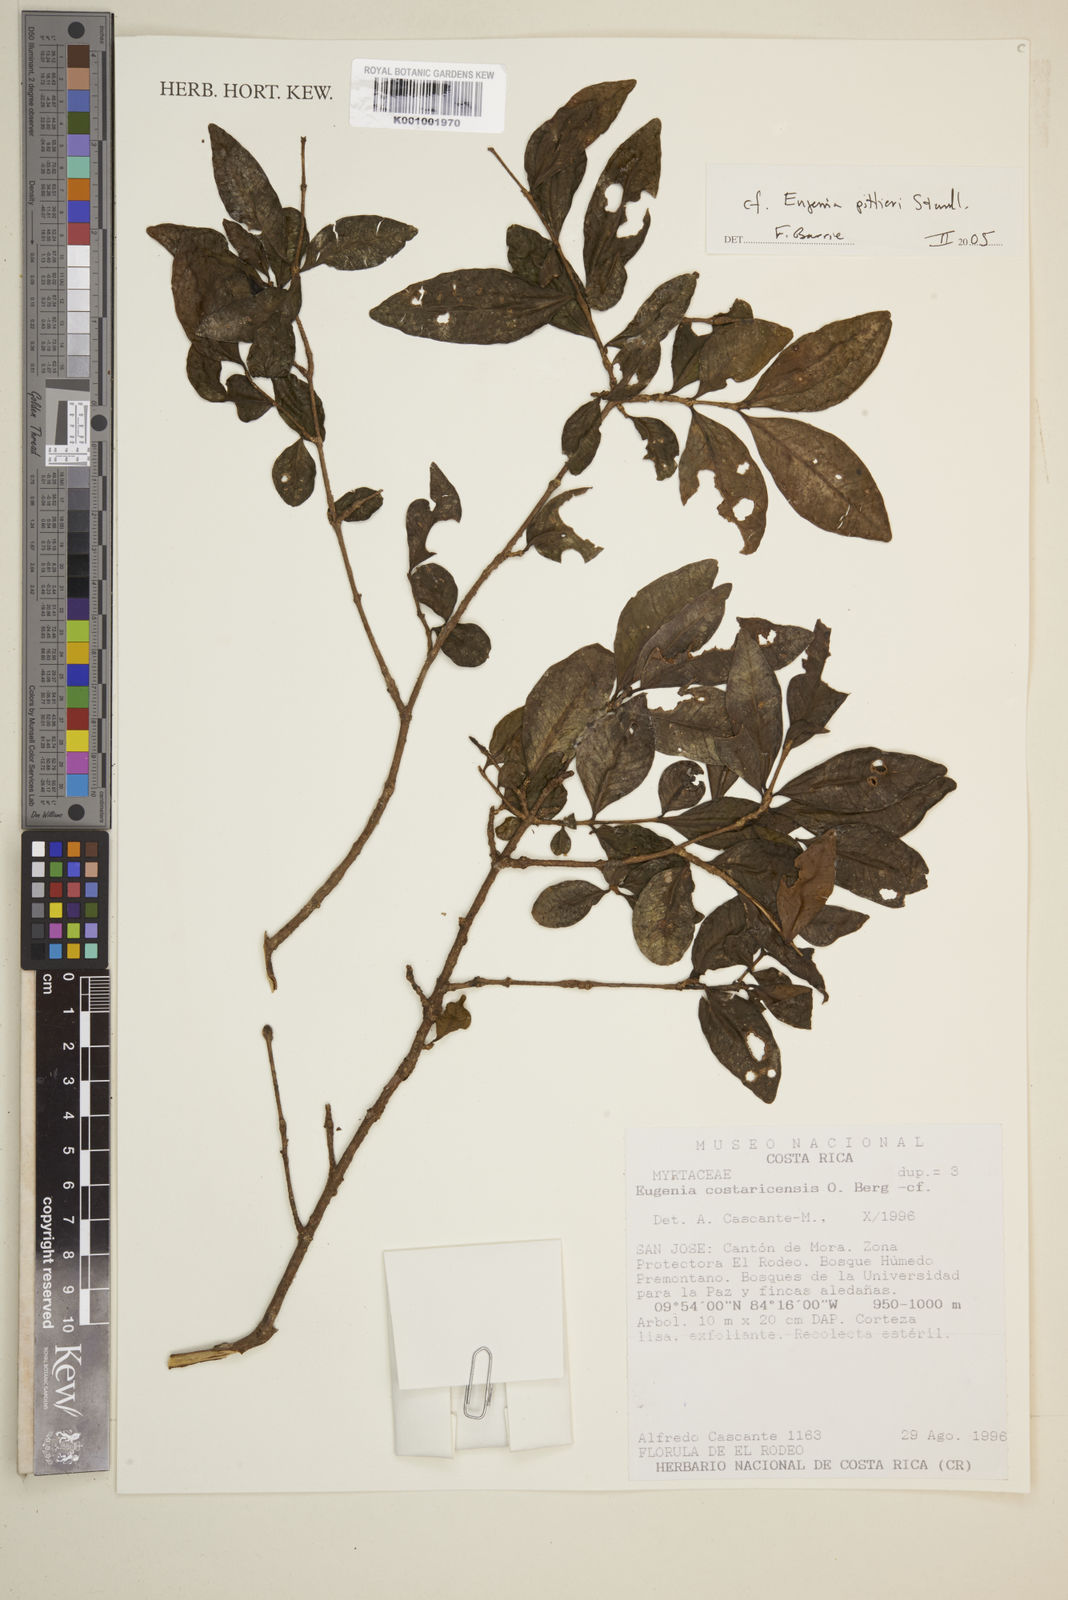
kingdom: Plantae
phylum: Tracheophyta
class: Magnoliopsida
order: Myrtales
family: Myrtaceae
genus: Eugenia
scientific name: Eugenia pittieri
